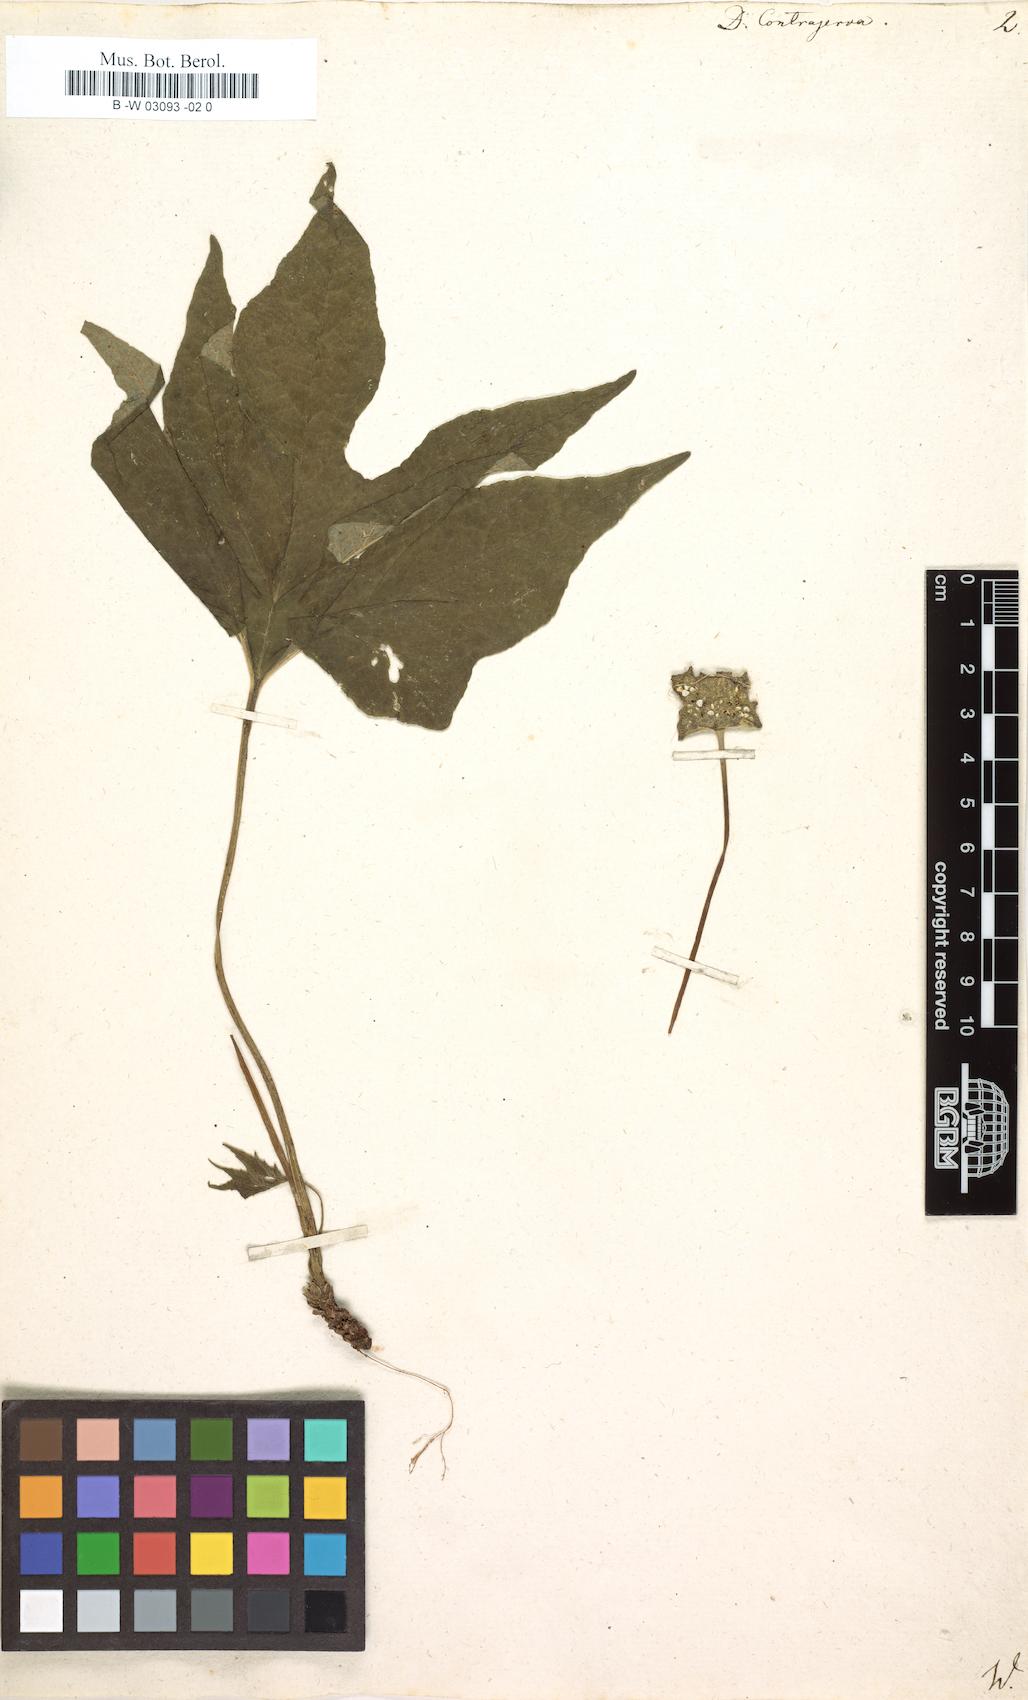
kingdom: Plantae
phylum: Tracheophyta
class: Magnoliopsida
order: Rosales
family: Moraceae
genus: Dorstenia
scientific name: Dorstenia contrajerva
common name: Tusilla
